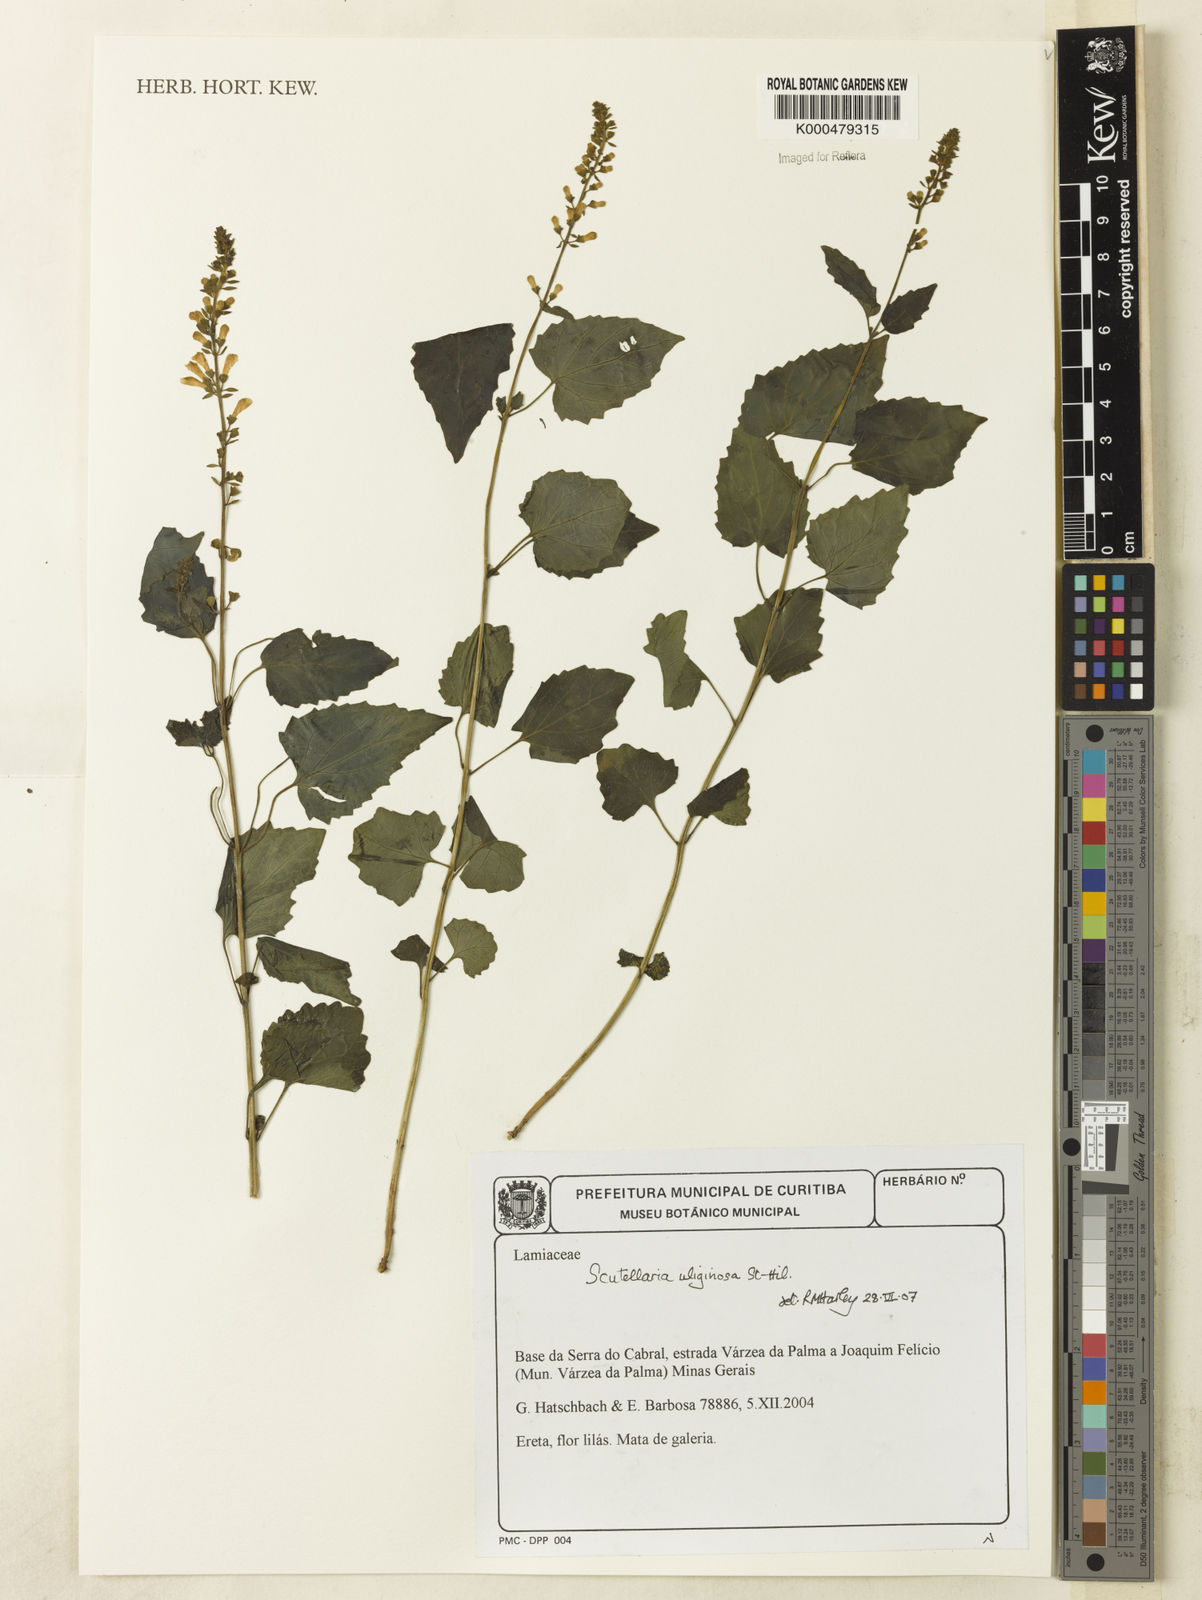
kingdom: Plantae
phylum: Tracheophyta
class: Magnoliopsida
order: Lamiales
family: Lamiaceae
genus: Scutellaria
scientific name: Scutellaria
